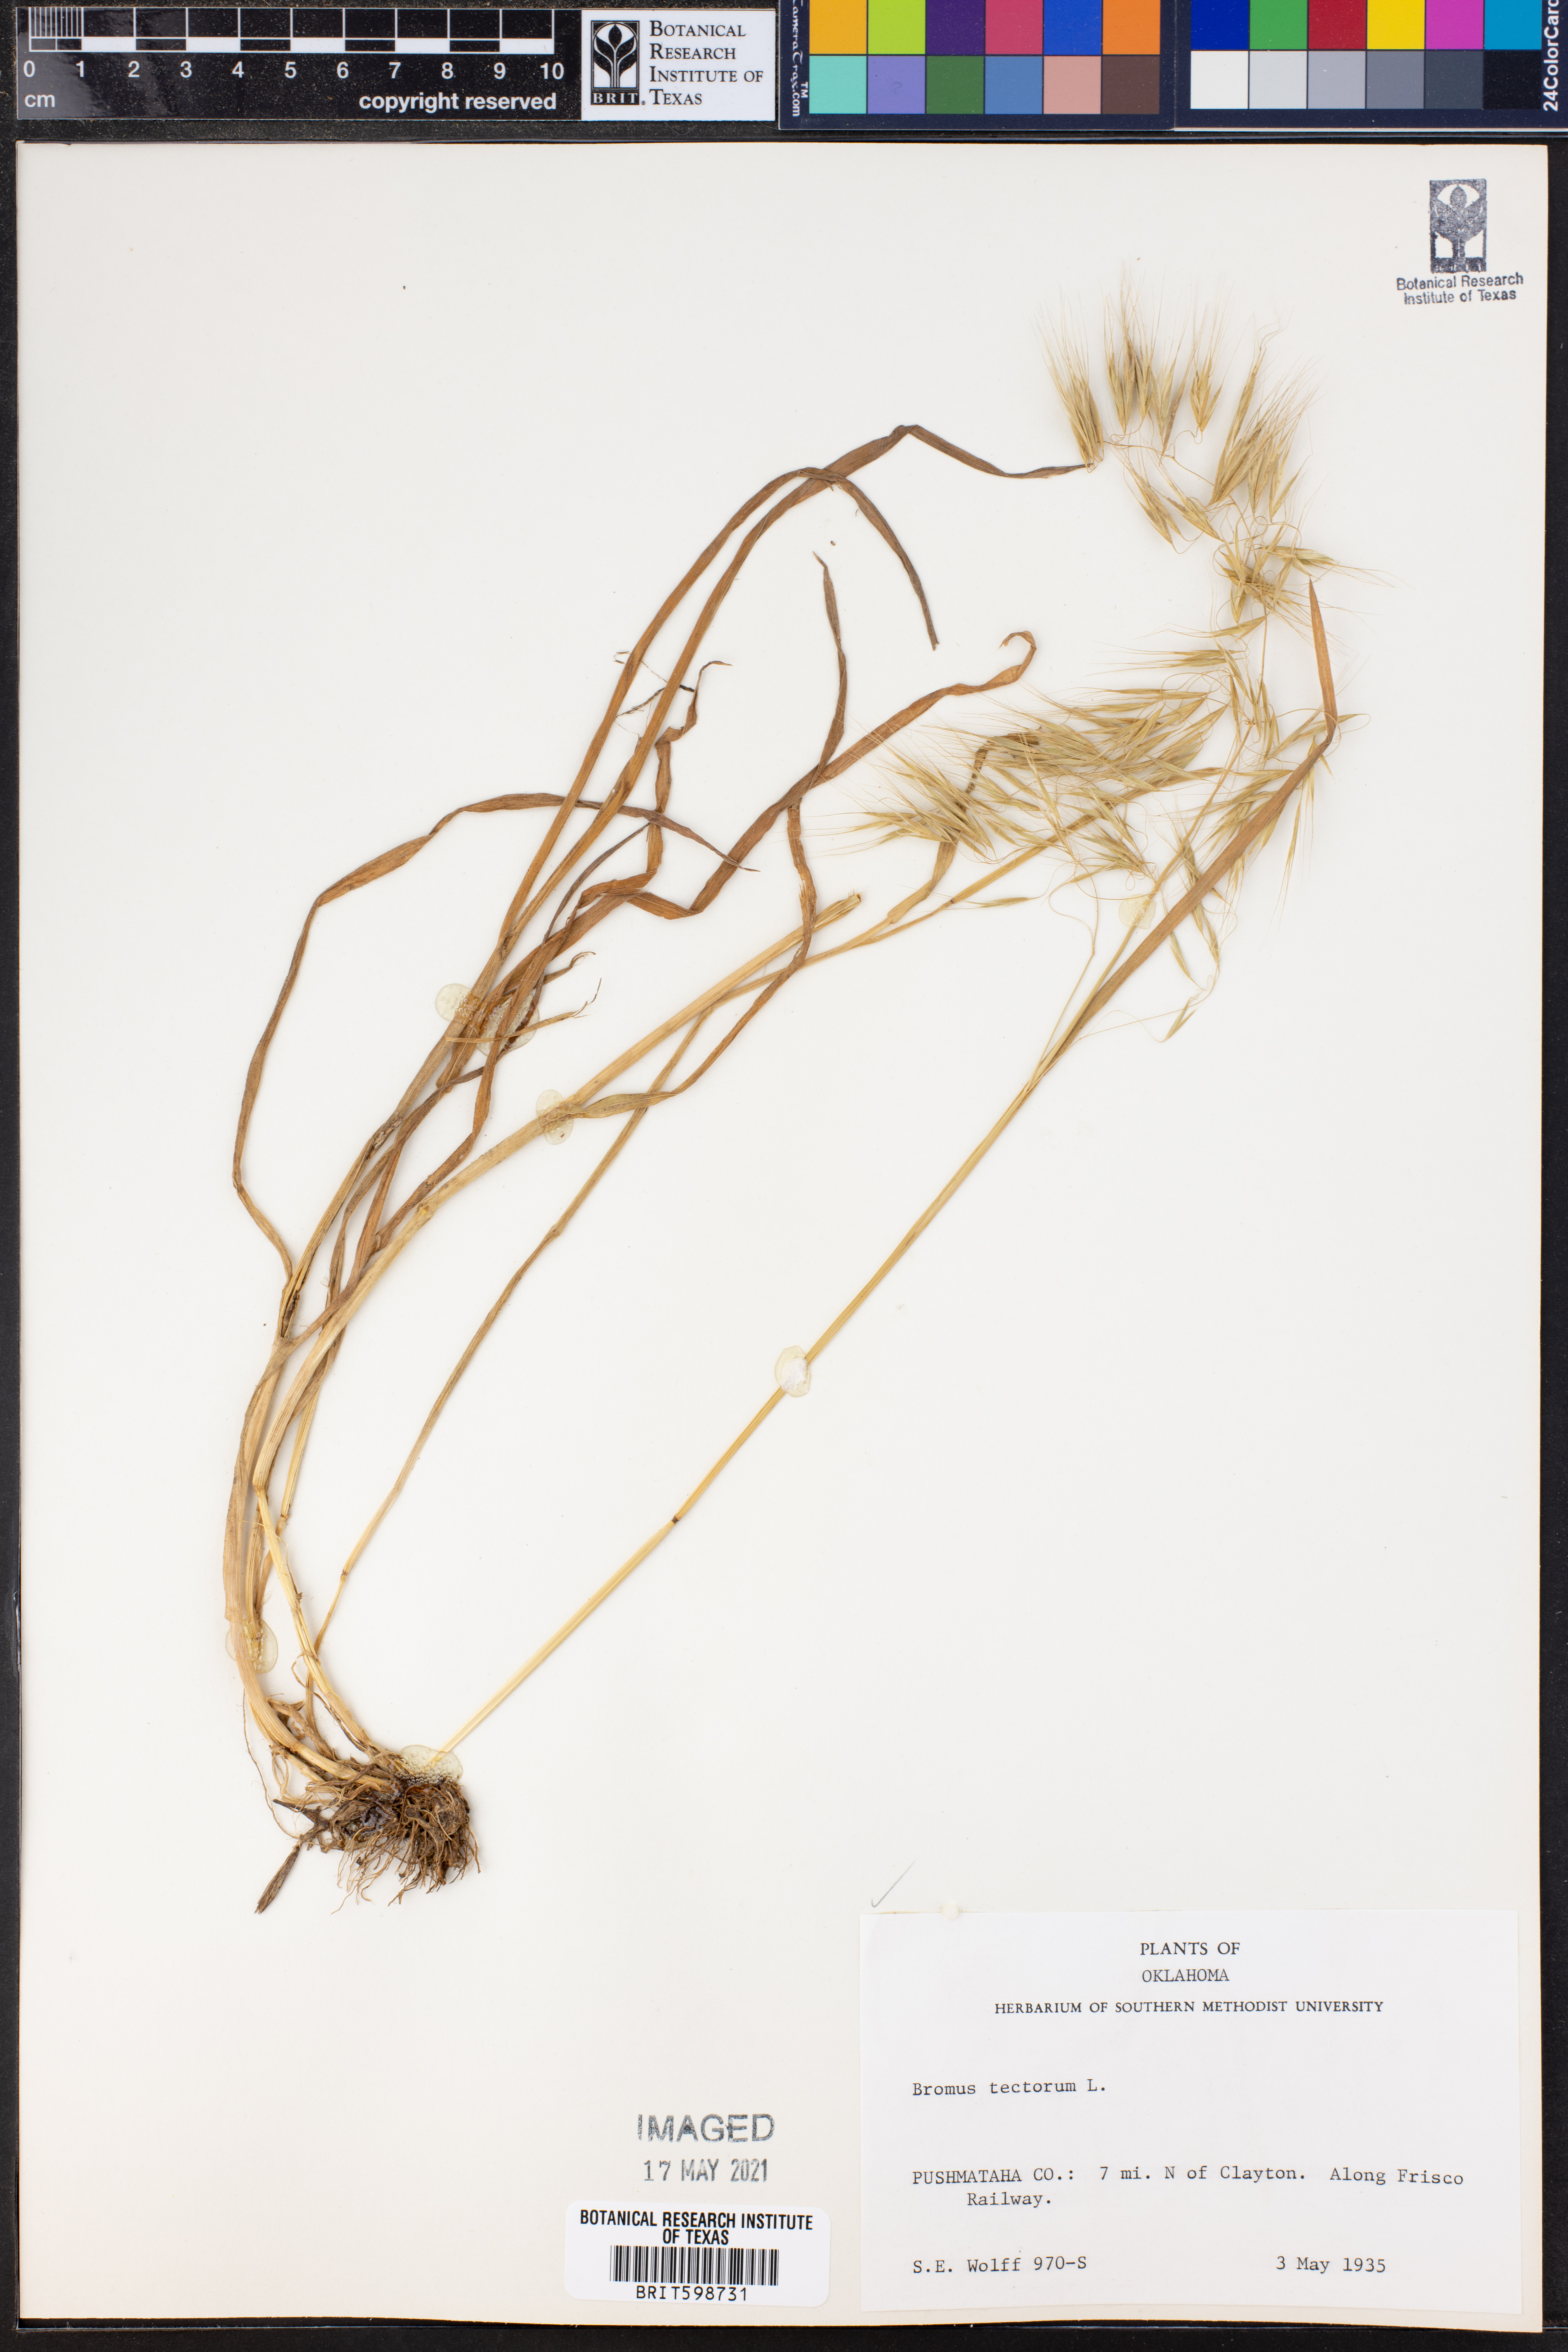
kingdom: Plantae
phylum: Tracheophyta
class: Liliopsida
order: Poales
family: Poaceae
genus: Bromus
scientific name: Bromus tectorum
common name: Cheatgrass
